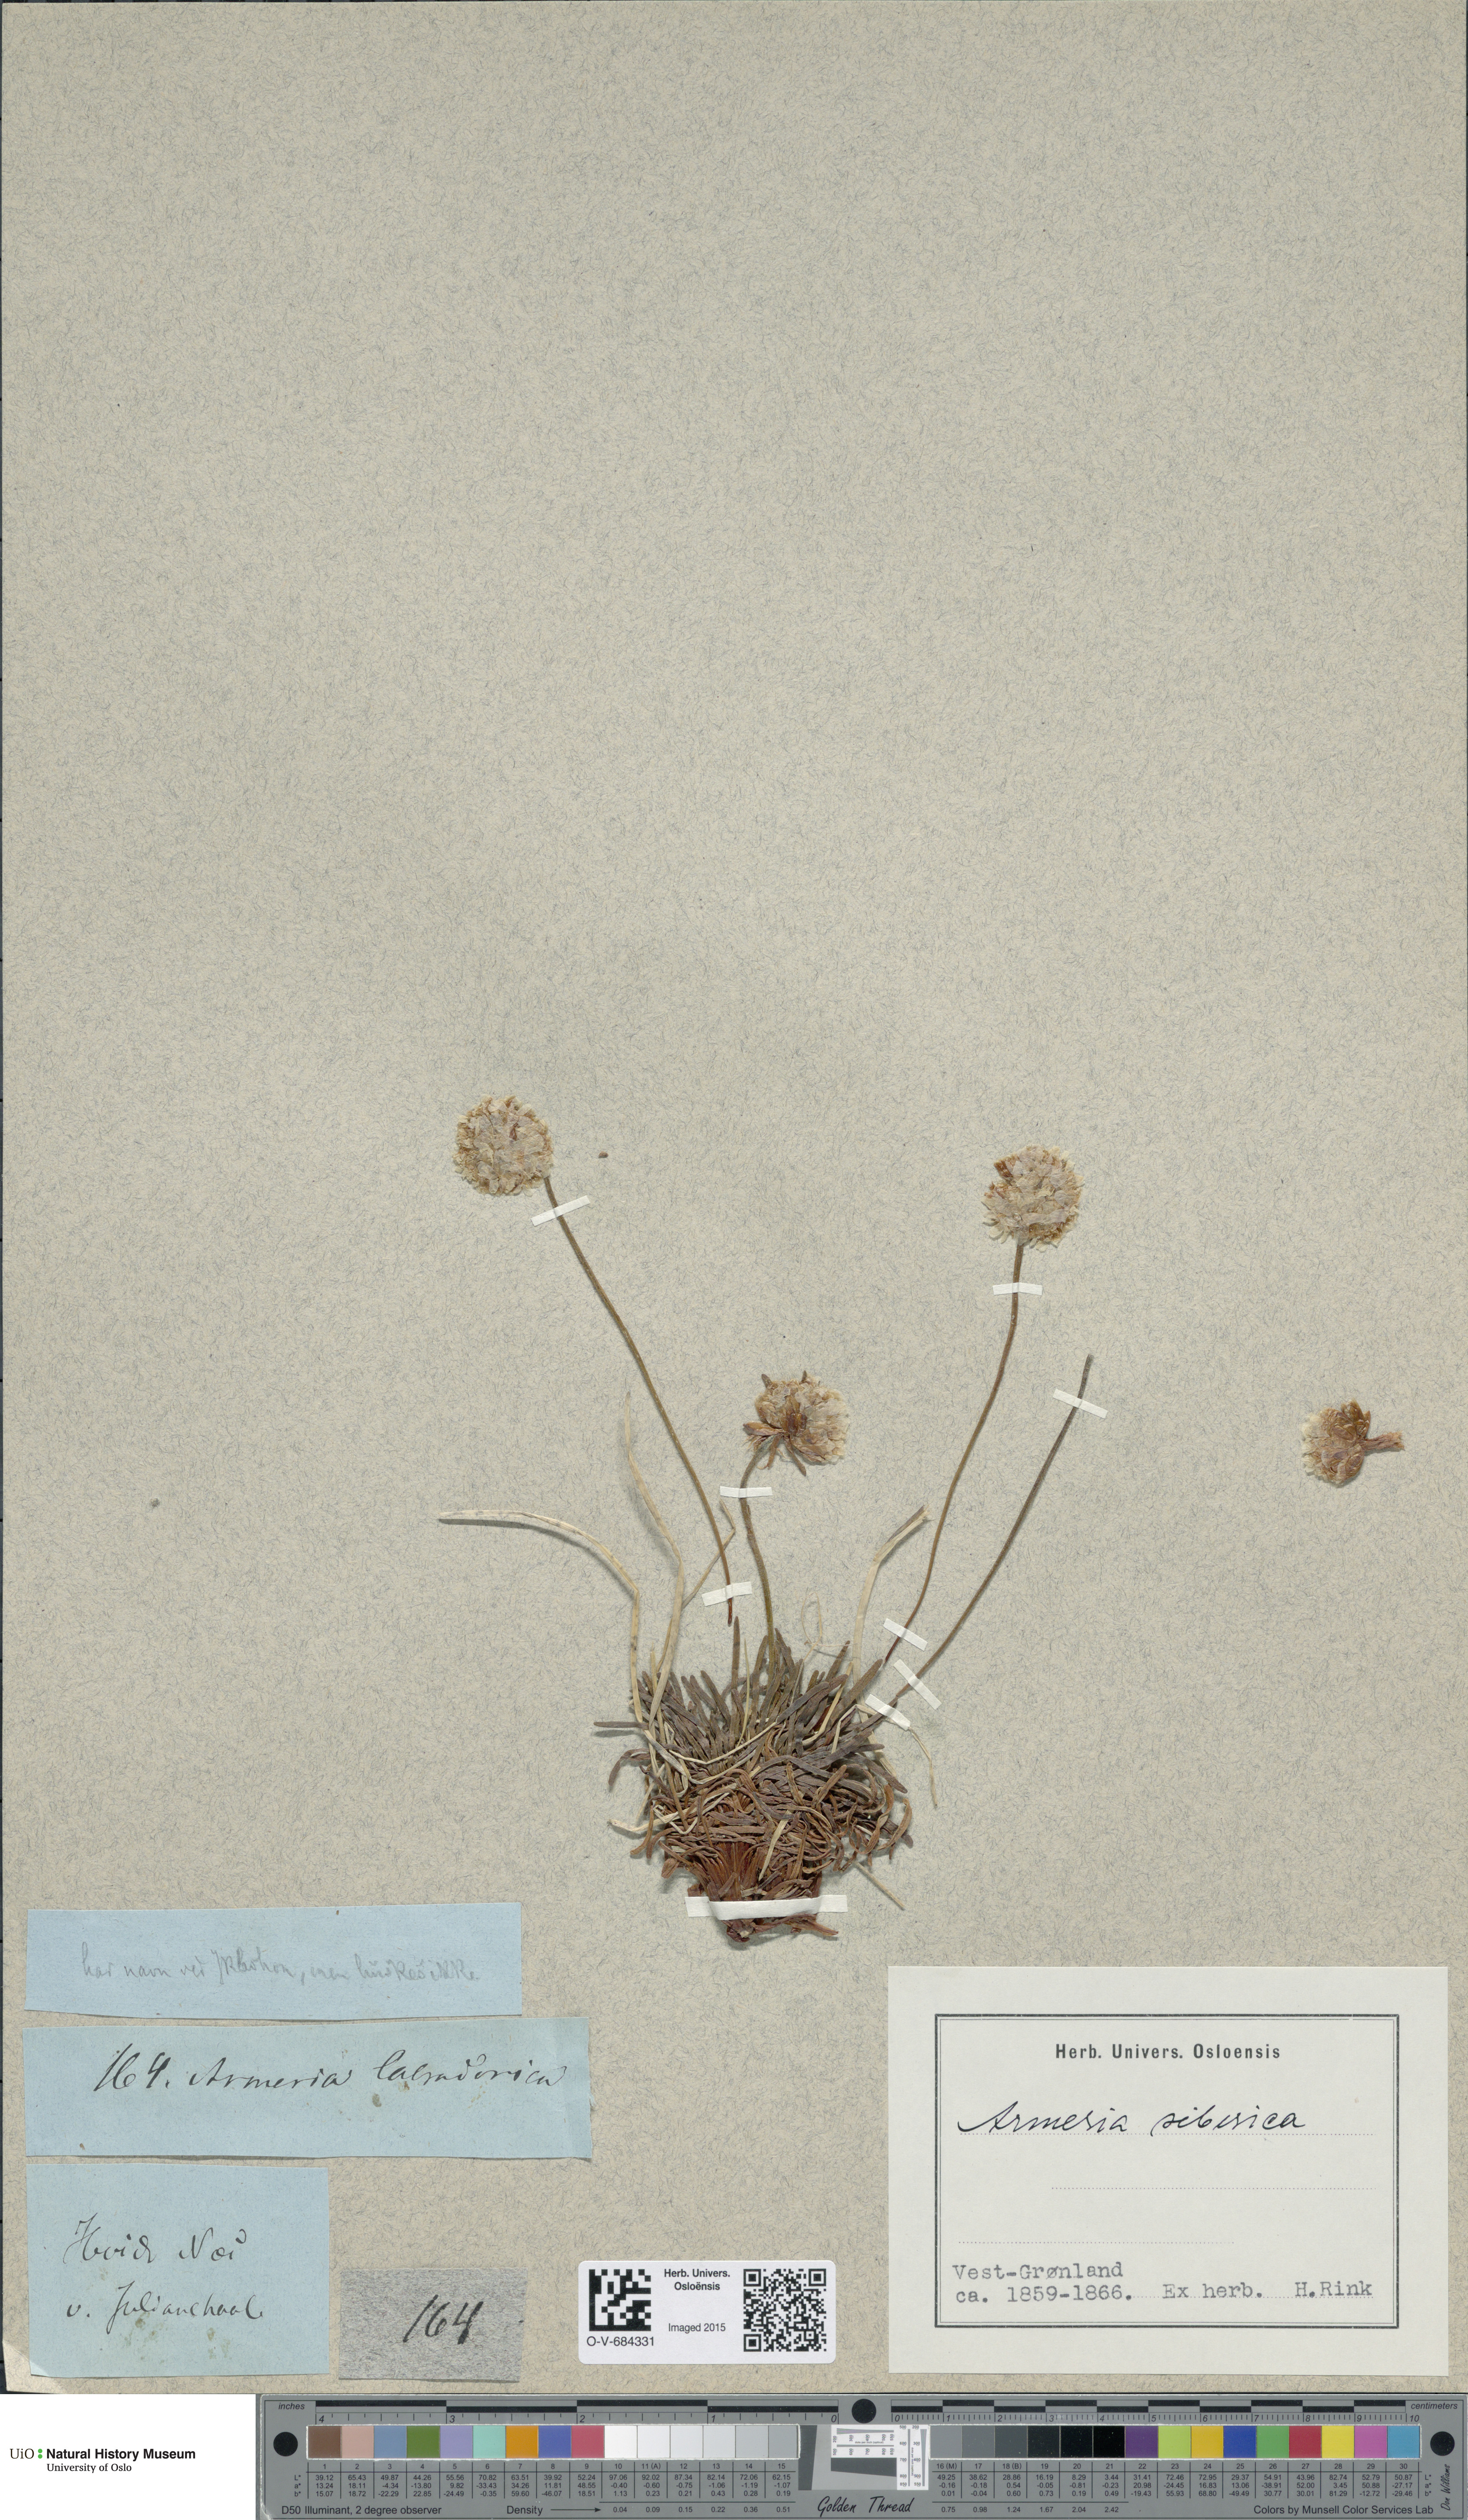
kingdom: Plantae
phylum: Tracheophyta
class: Magnoliopsida
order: Caryophyllales
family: Plumbaginaceae
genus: Armeria
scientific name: Armeria maritima
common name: Thrift
